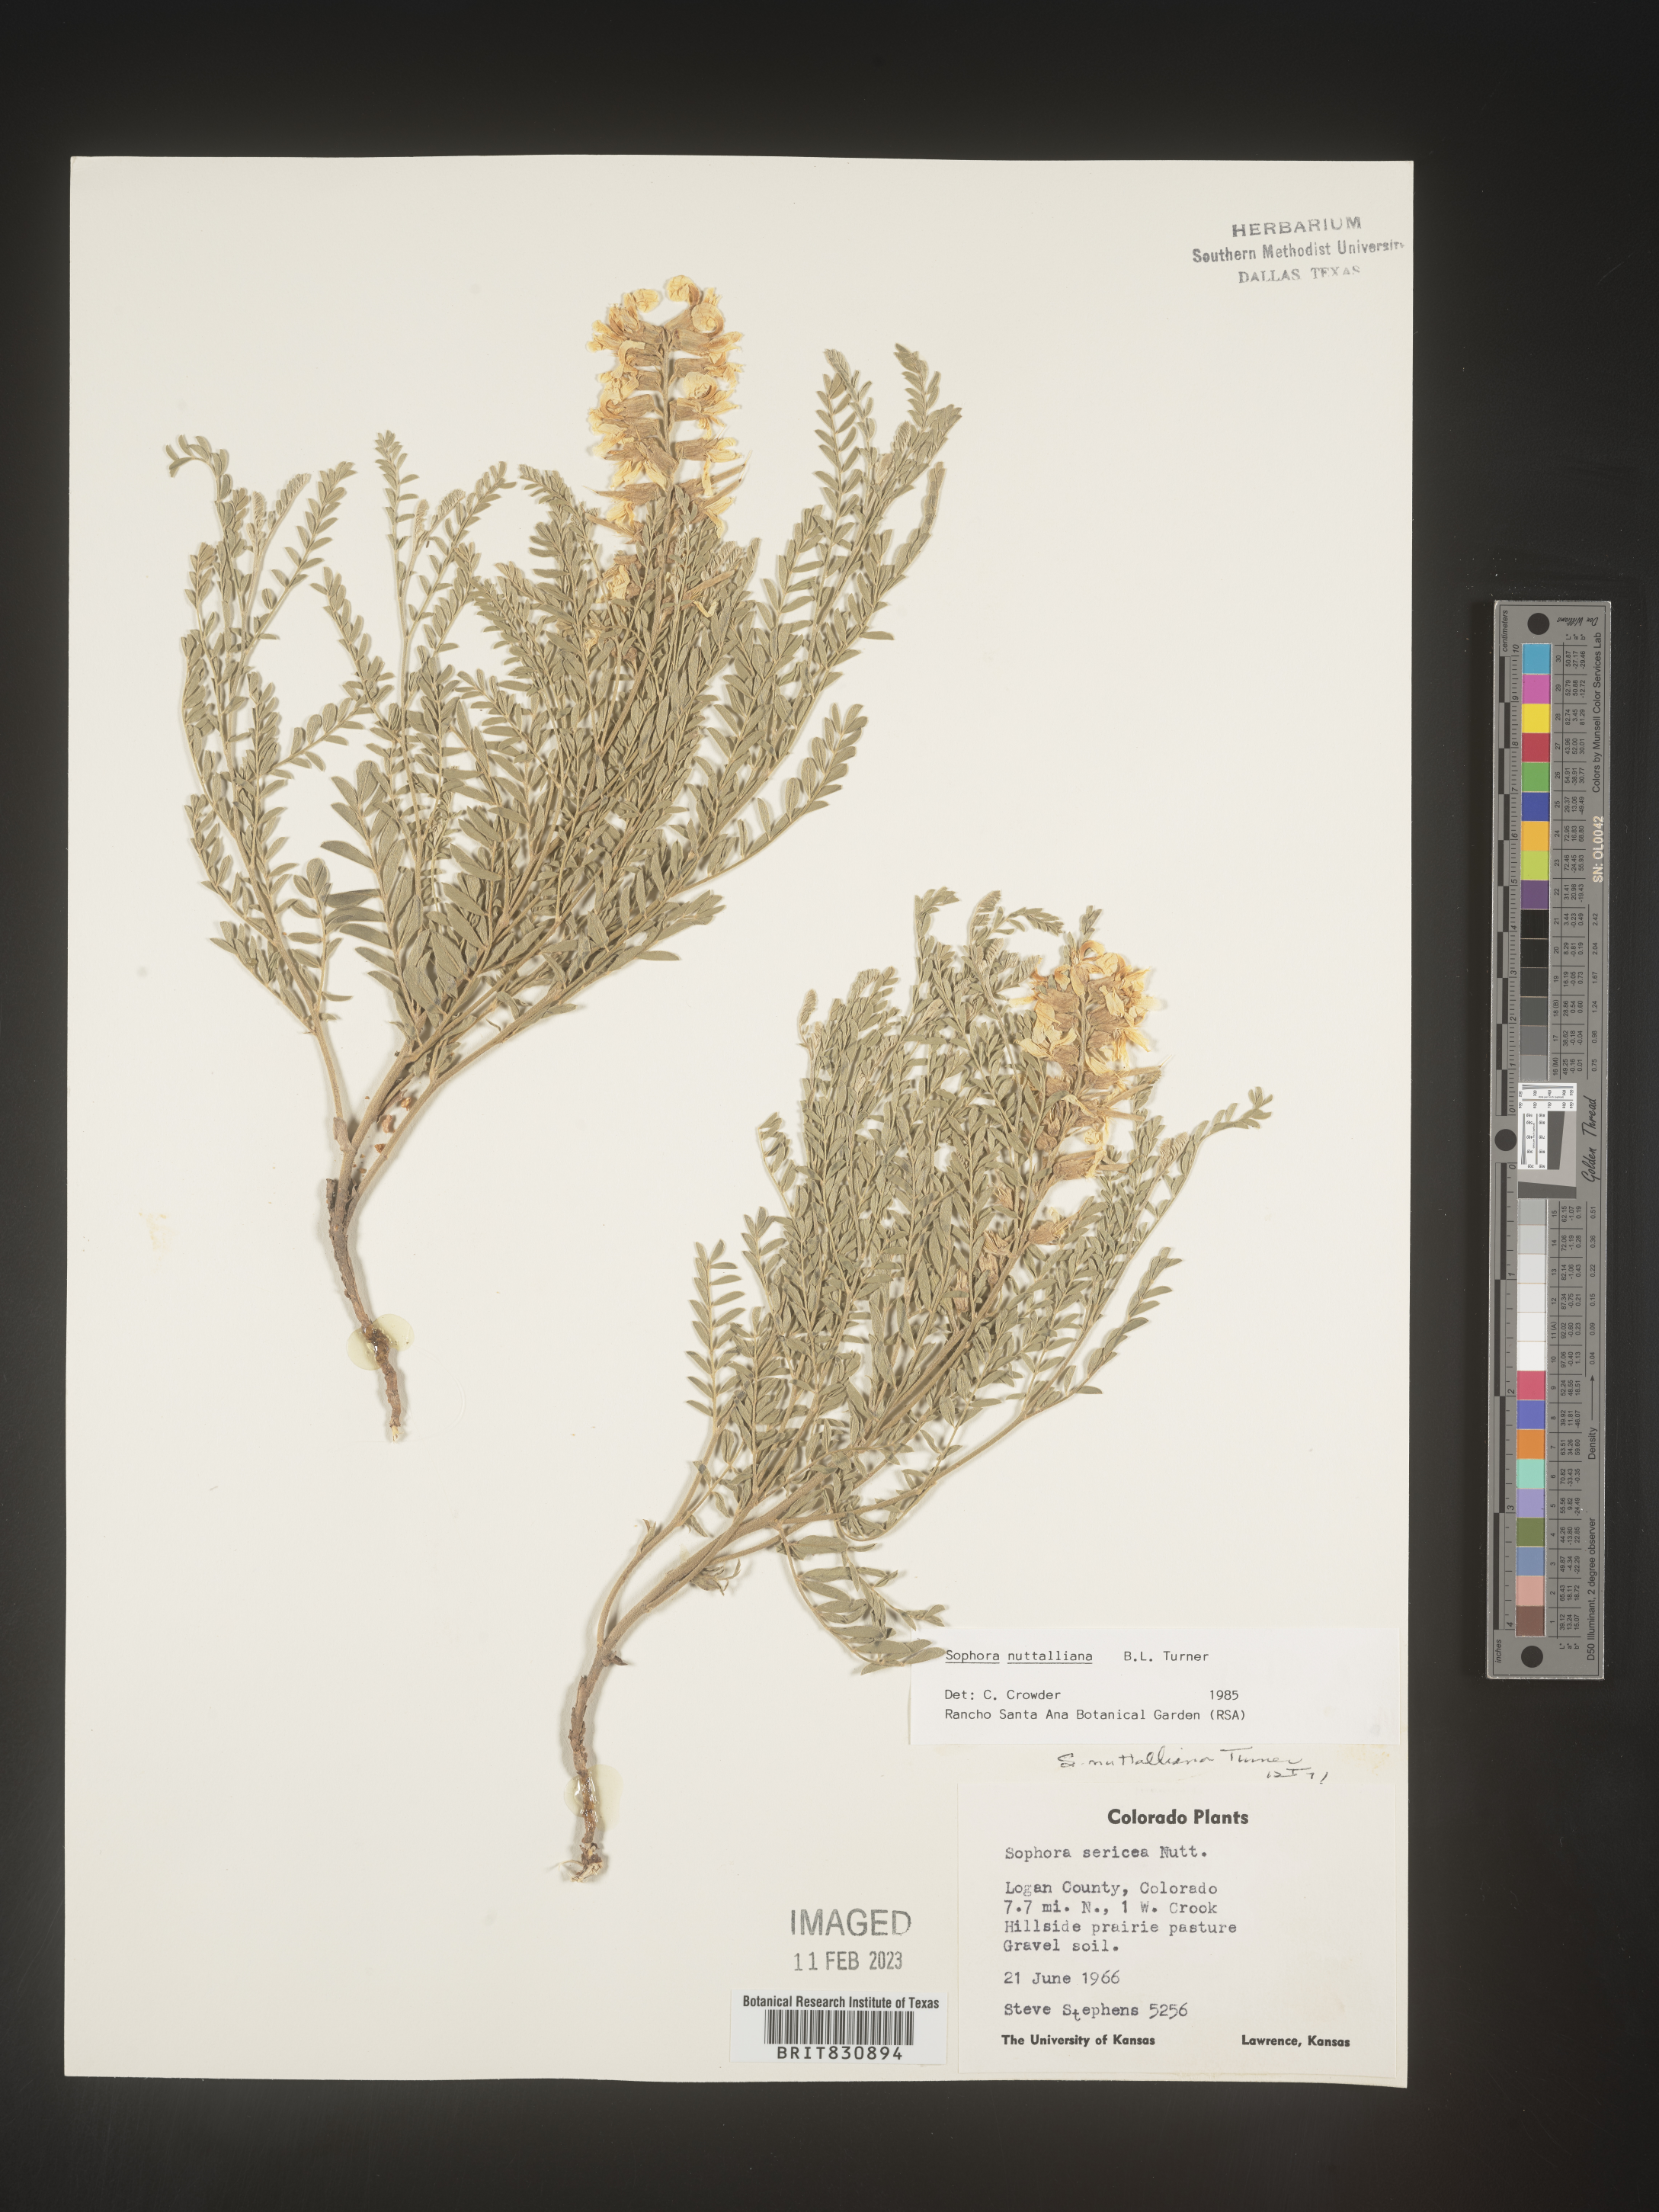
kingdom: Plantae
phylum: Tracheophyta
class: Magnoliopsida
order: Fabales
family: Fabaceae
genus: Sophora
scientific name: Sophora nuttalliana
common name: Silky sophora
